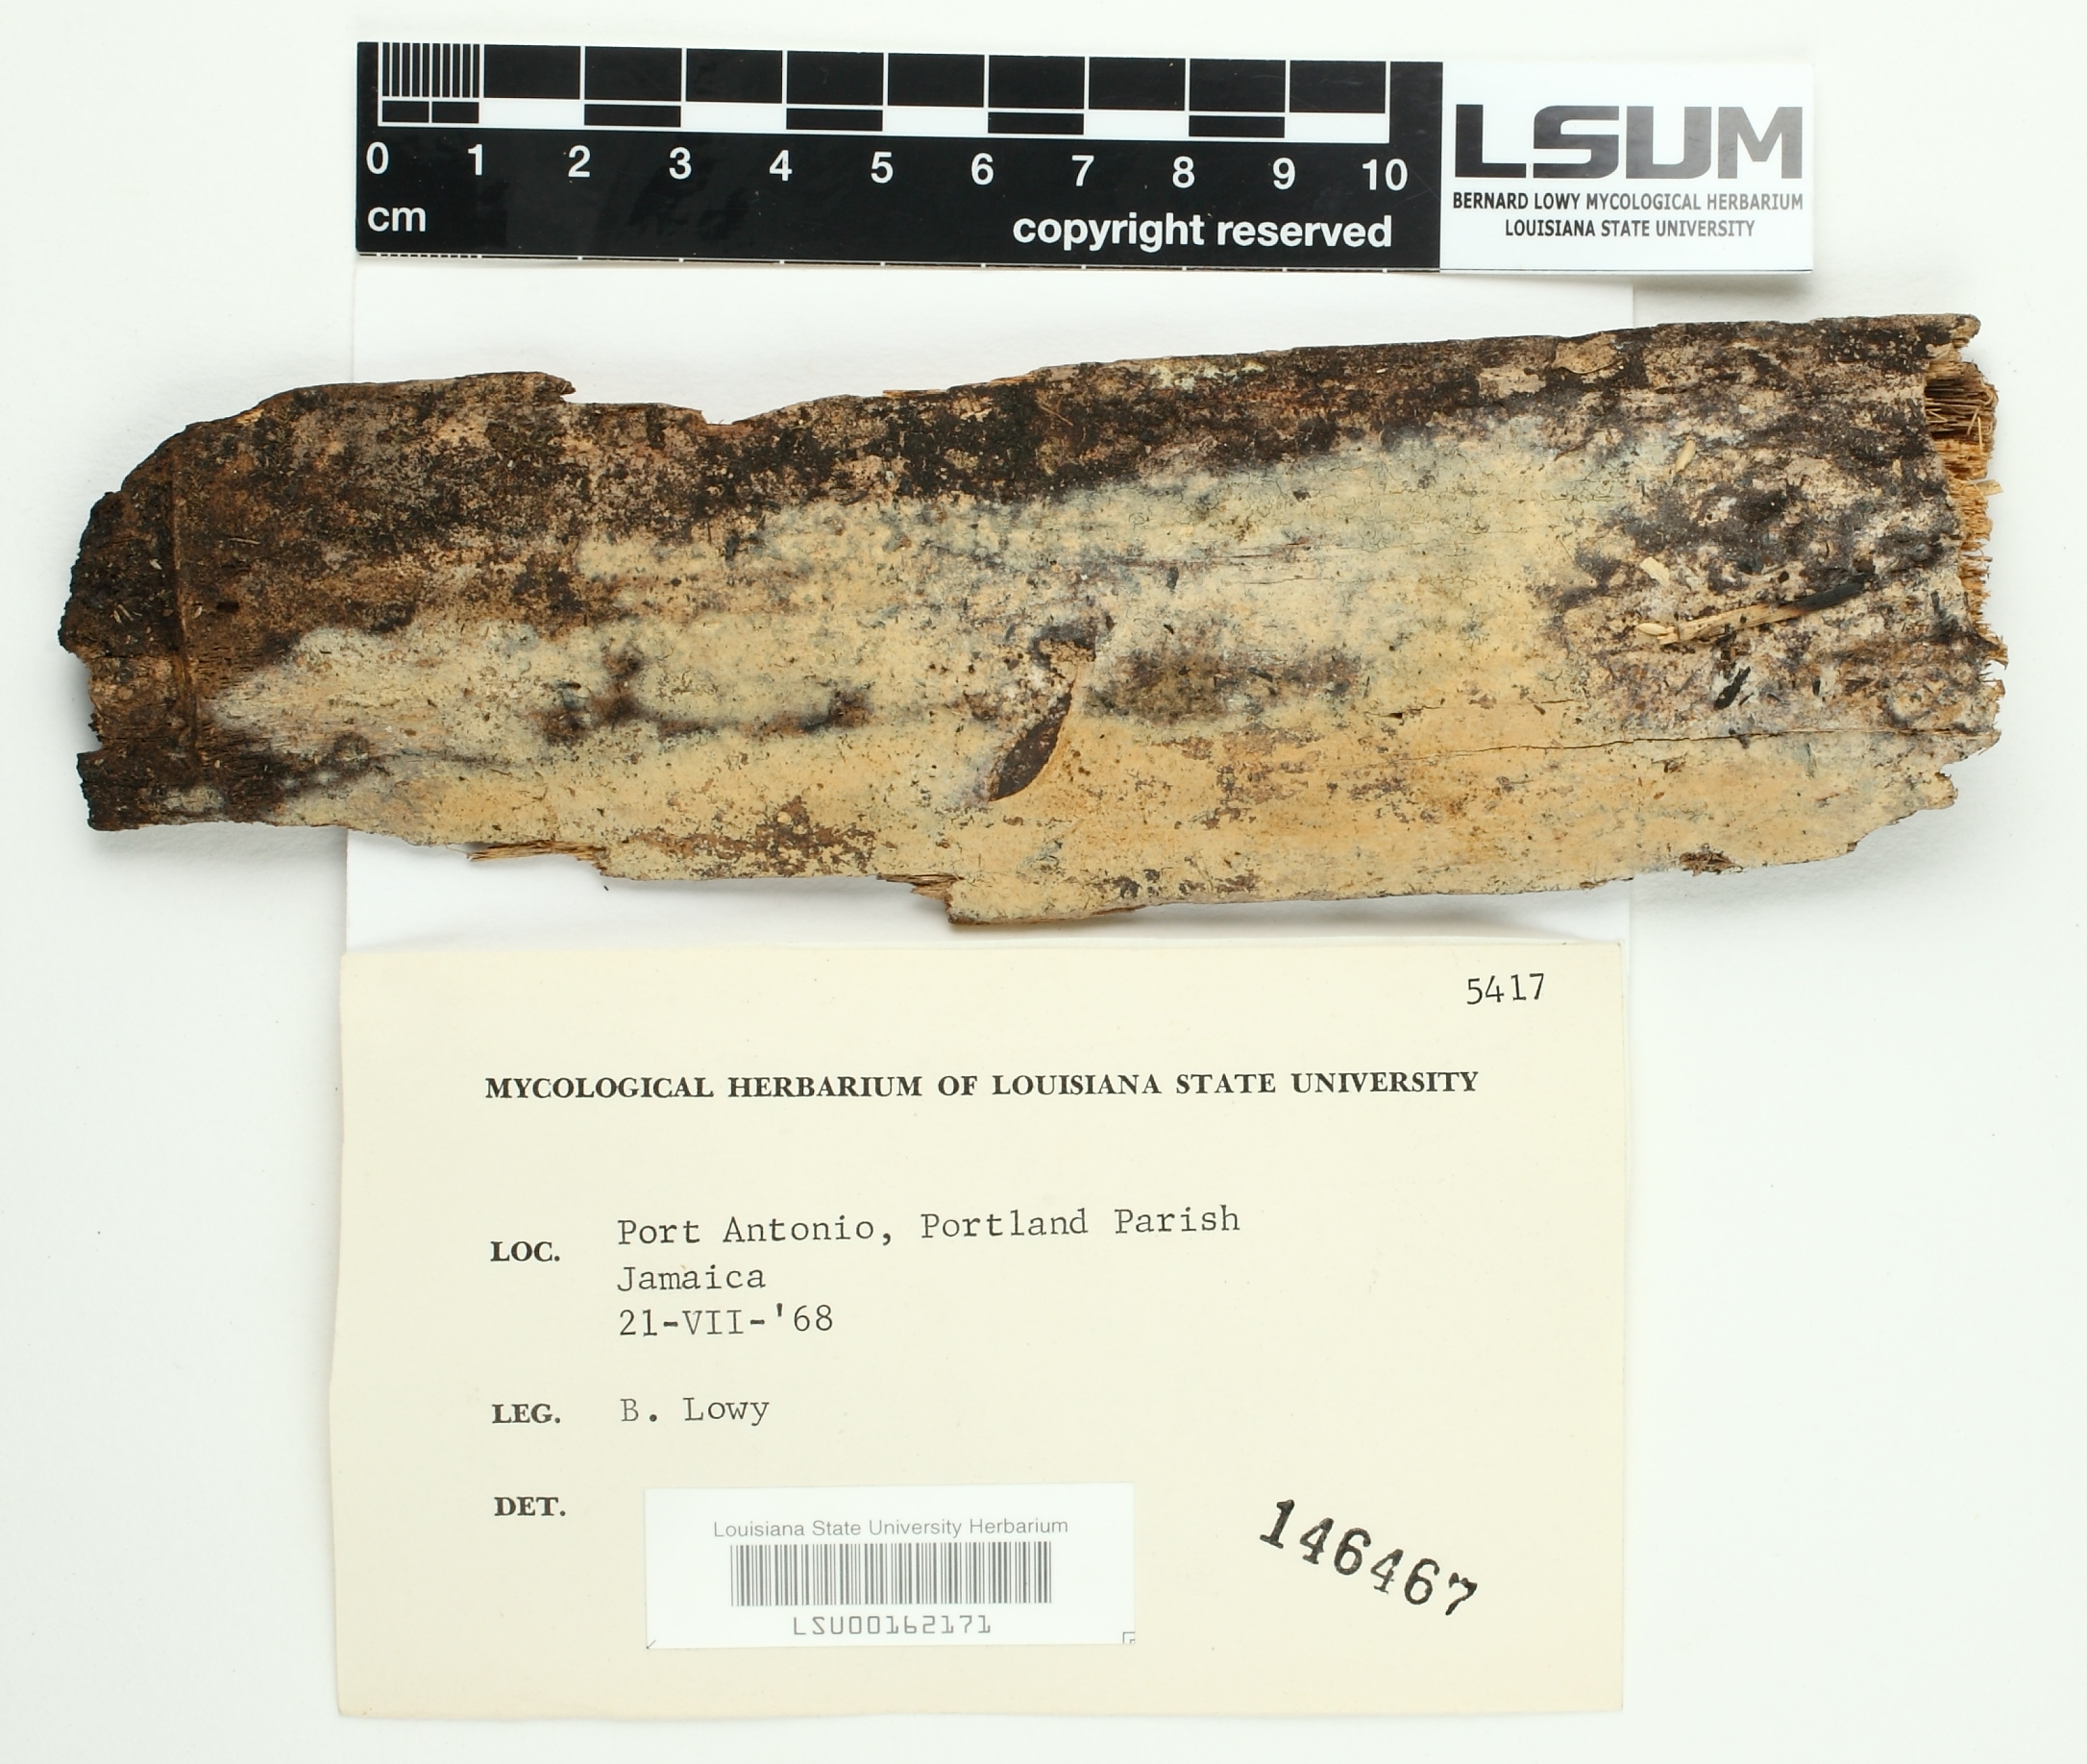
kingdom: Fungi
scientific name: Fungi
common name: Fungi
